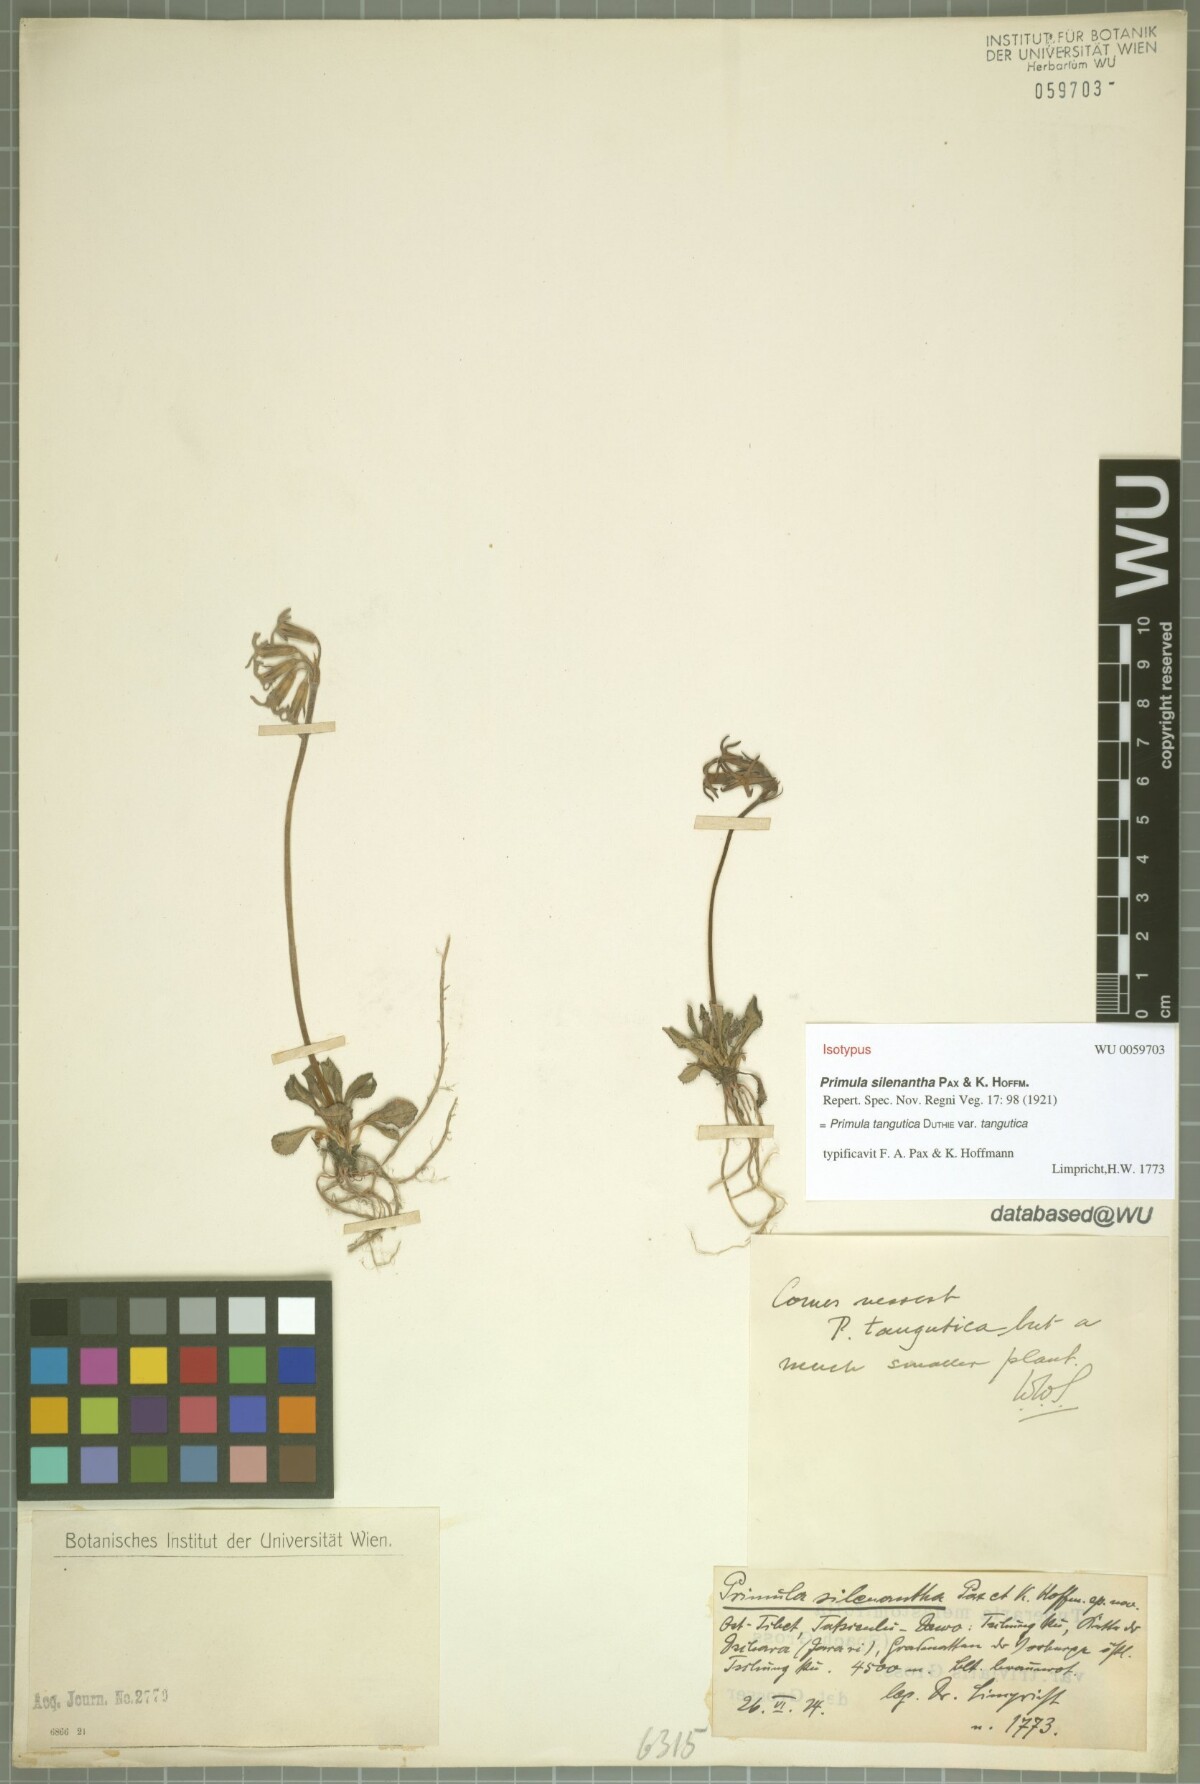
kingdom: Plantae
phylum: Tracheophyta
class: Magnoliopsida
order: Ericales
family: Primulaceae
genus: Primula
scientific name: Primula tangutica
